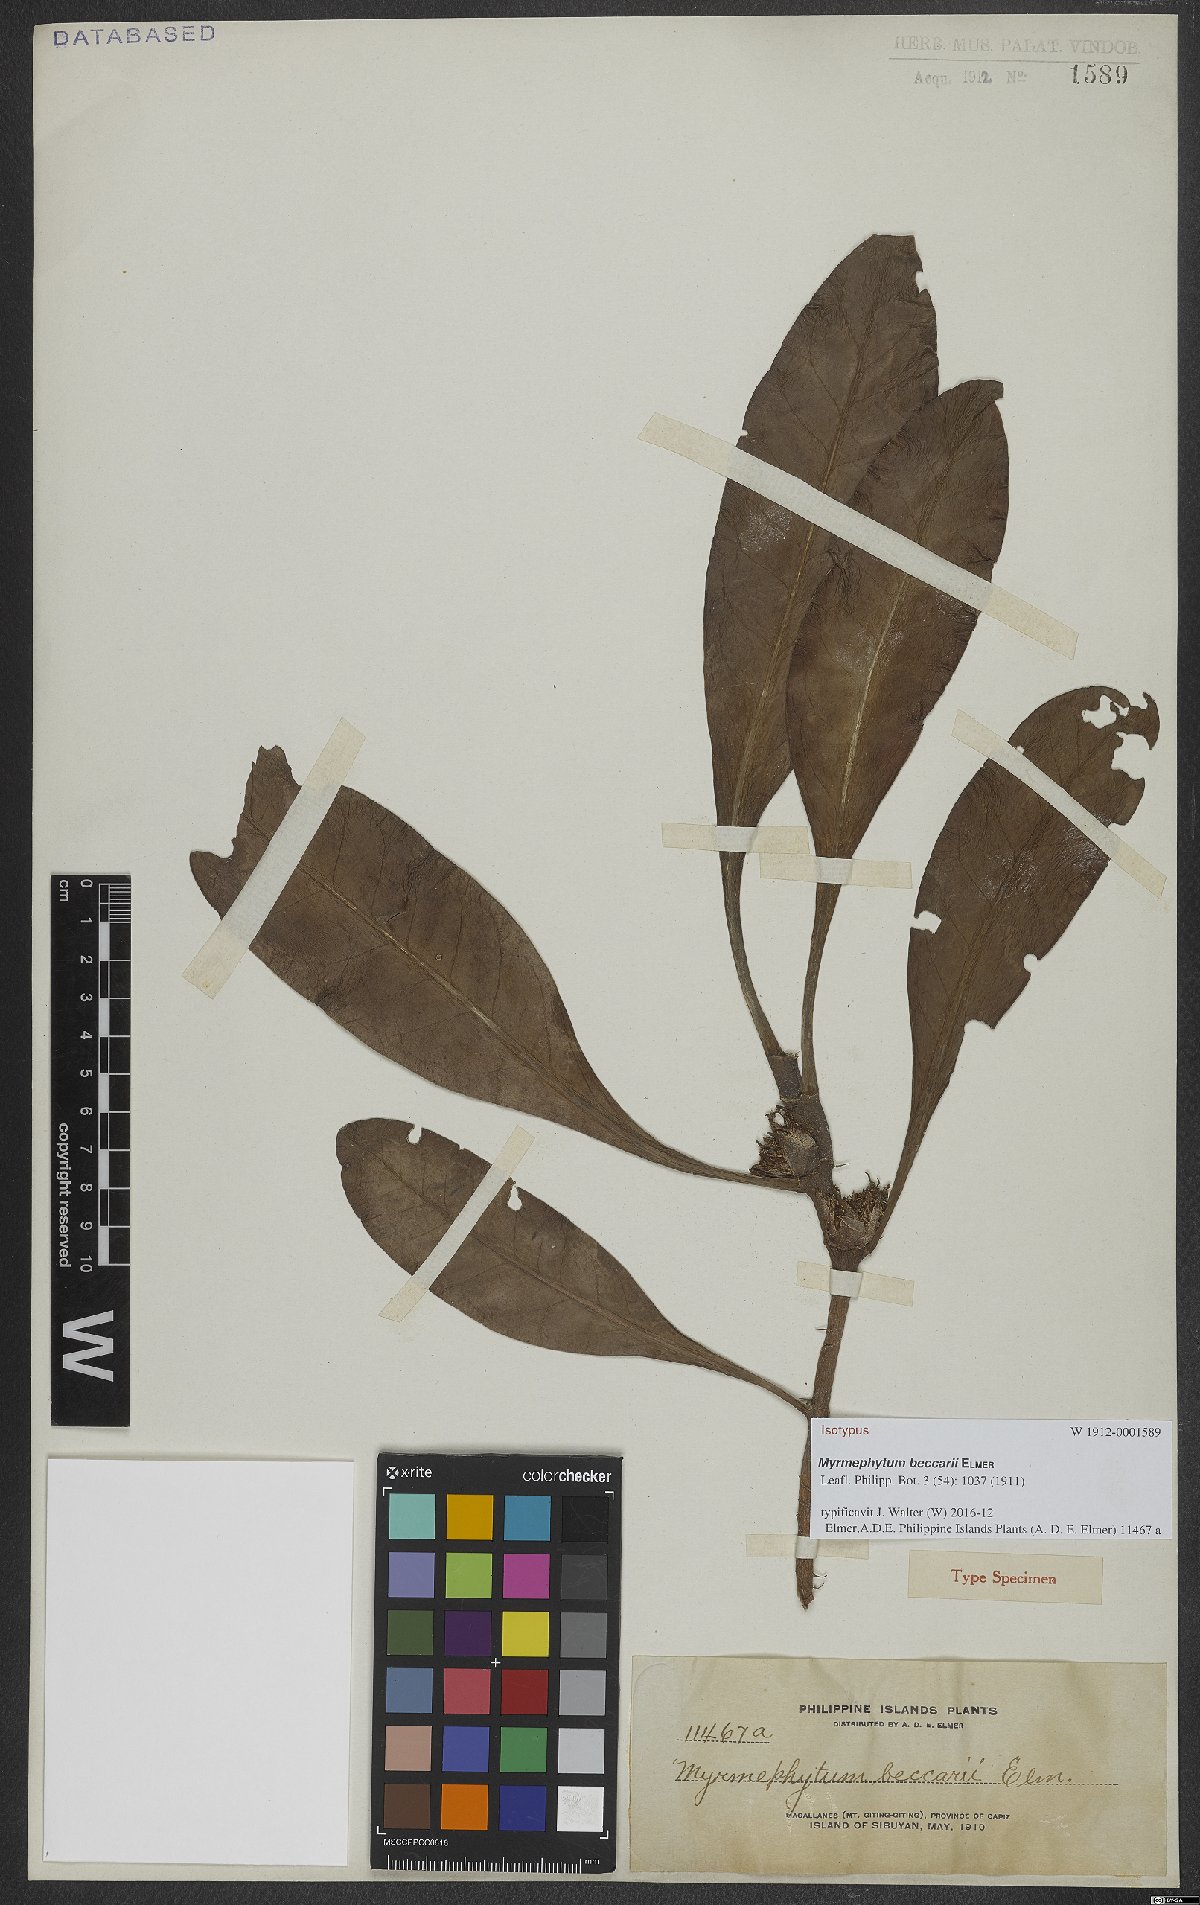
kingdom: Plantae
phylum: Tracheophyta
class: Magnoliopsida
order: Gentianales
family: Rubiaceae
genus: Myrmephytum
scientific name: Myrmephytum beccarii
